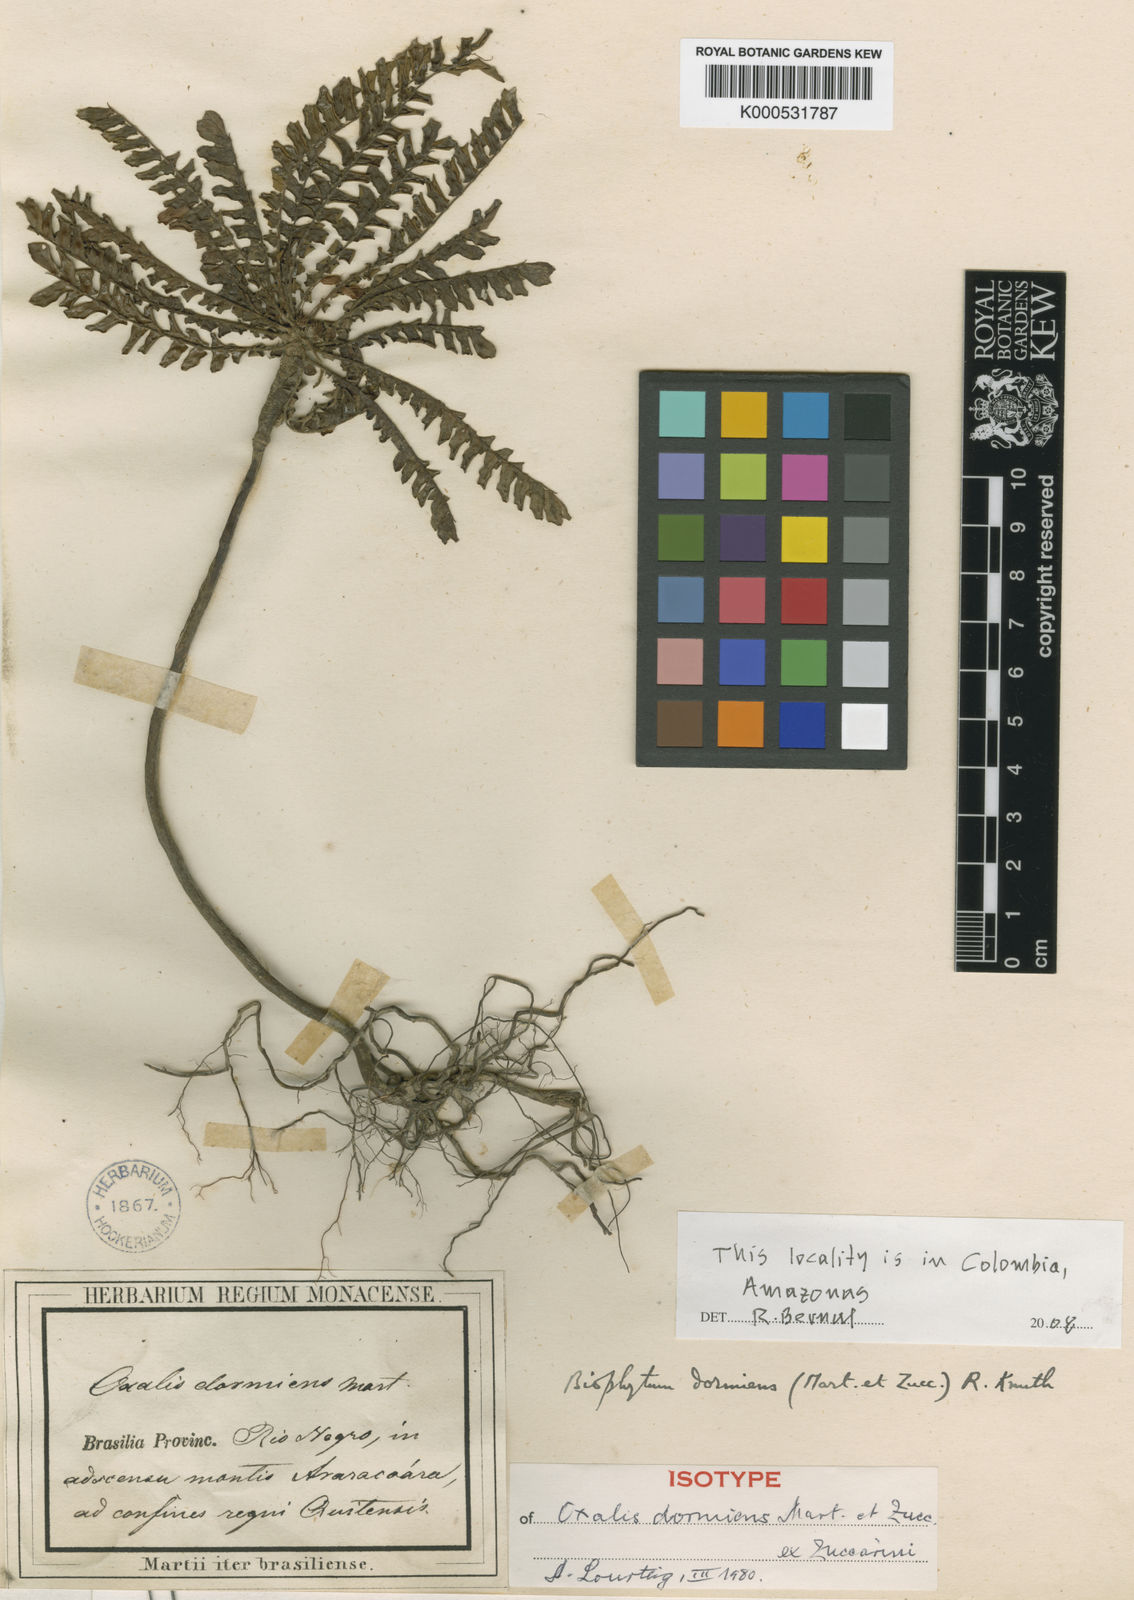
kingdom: Plantae
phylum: Tracheophyta
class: Magnoliopsida
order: Oxalidales
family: Oxalidaceae
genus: Biophytum
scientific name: Biophytum
